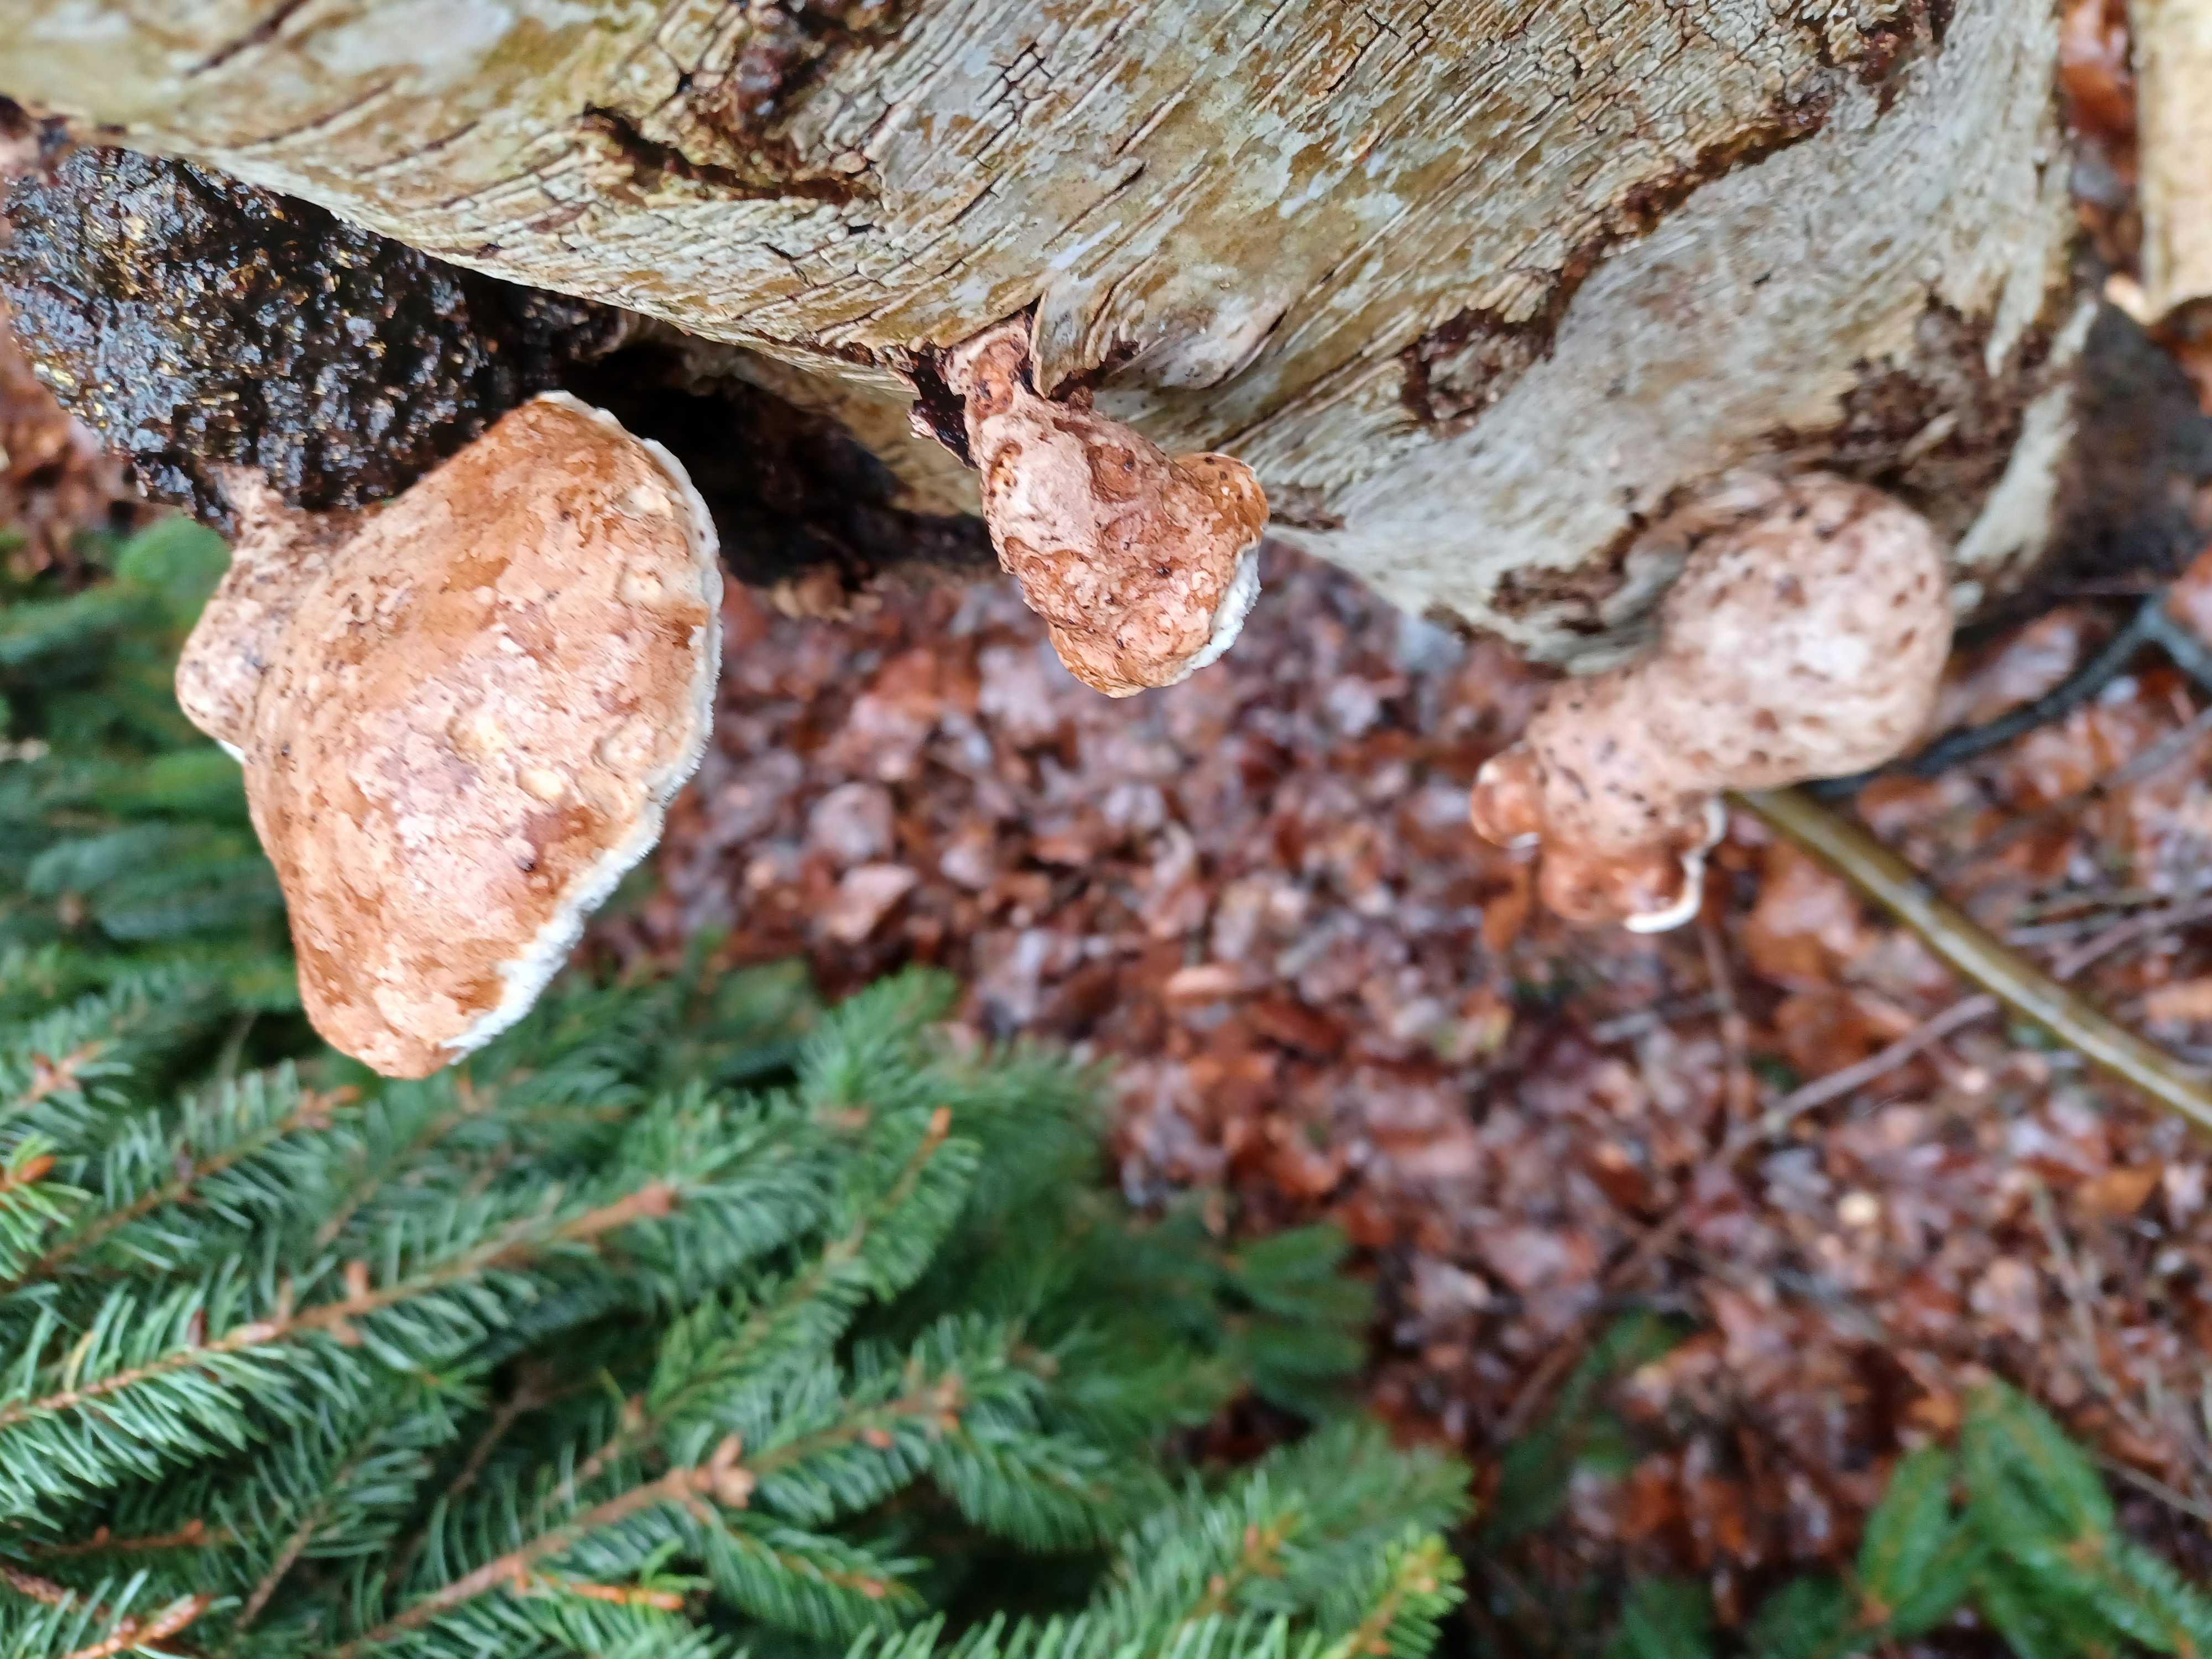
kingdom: Fungi
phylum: Basidiomycota
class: Agaricomycetes
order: Polyporales
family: Fomitopsidaceae
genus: Fomitopsis
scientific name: Fomitopsis betulina
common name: birkeporesvamp
